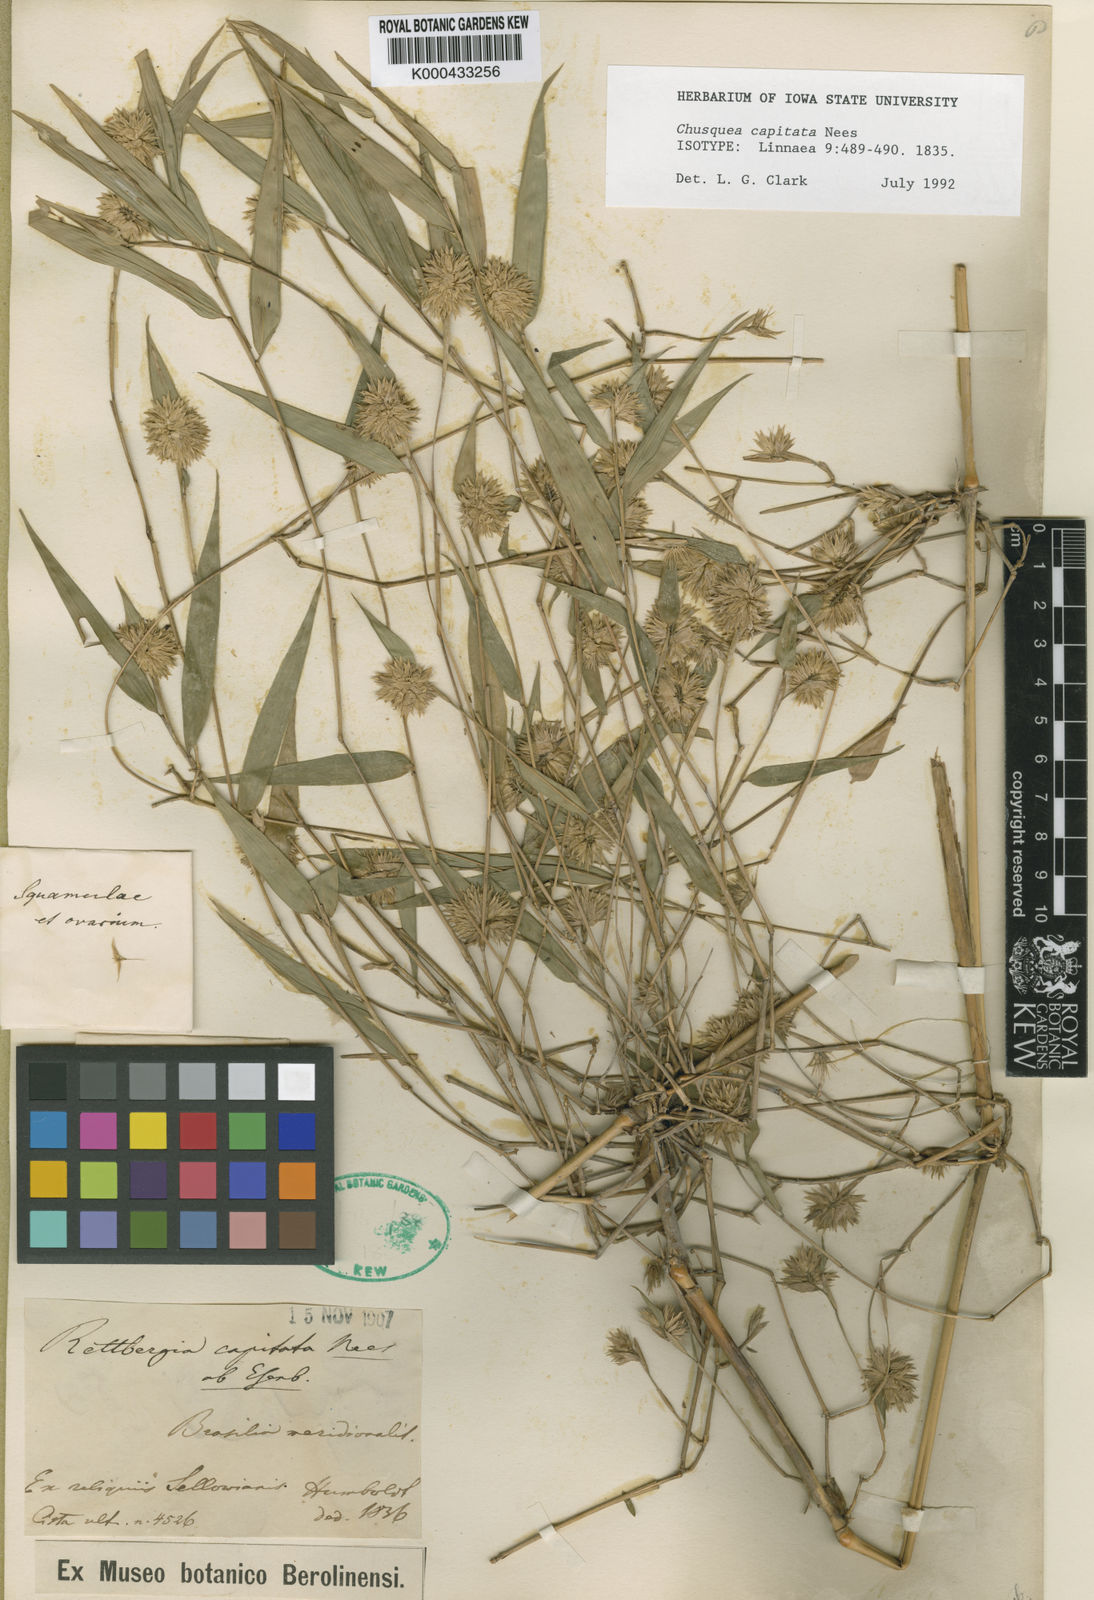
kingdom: Plantae
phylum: Tracheophyta
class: Liliopsida
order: Poales
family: Poaceae
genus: Chusquea
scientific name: Chusquea capitata
